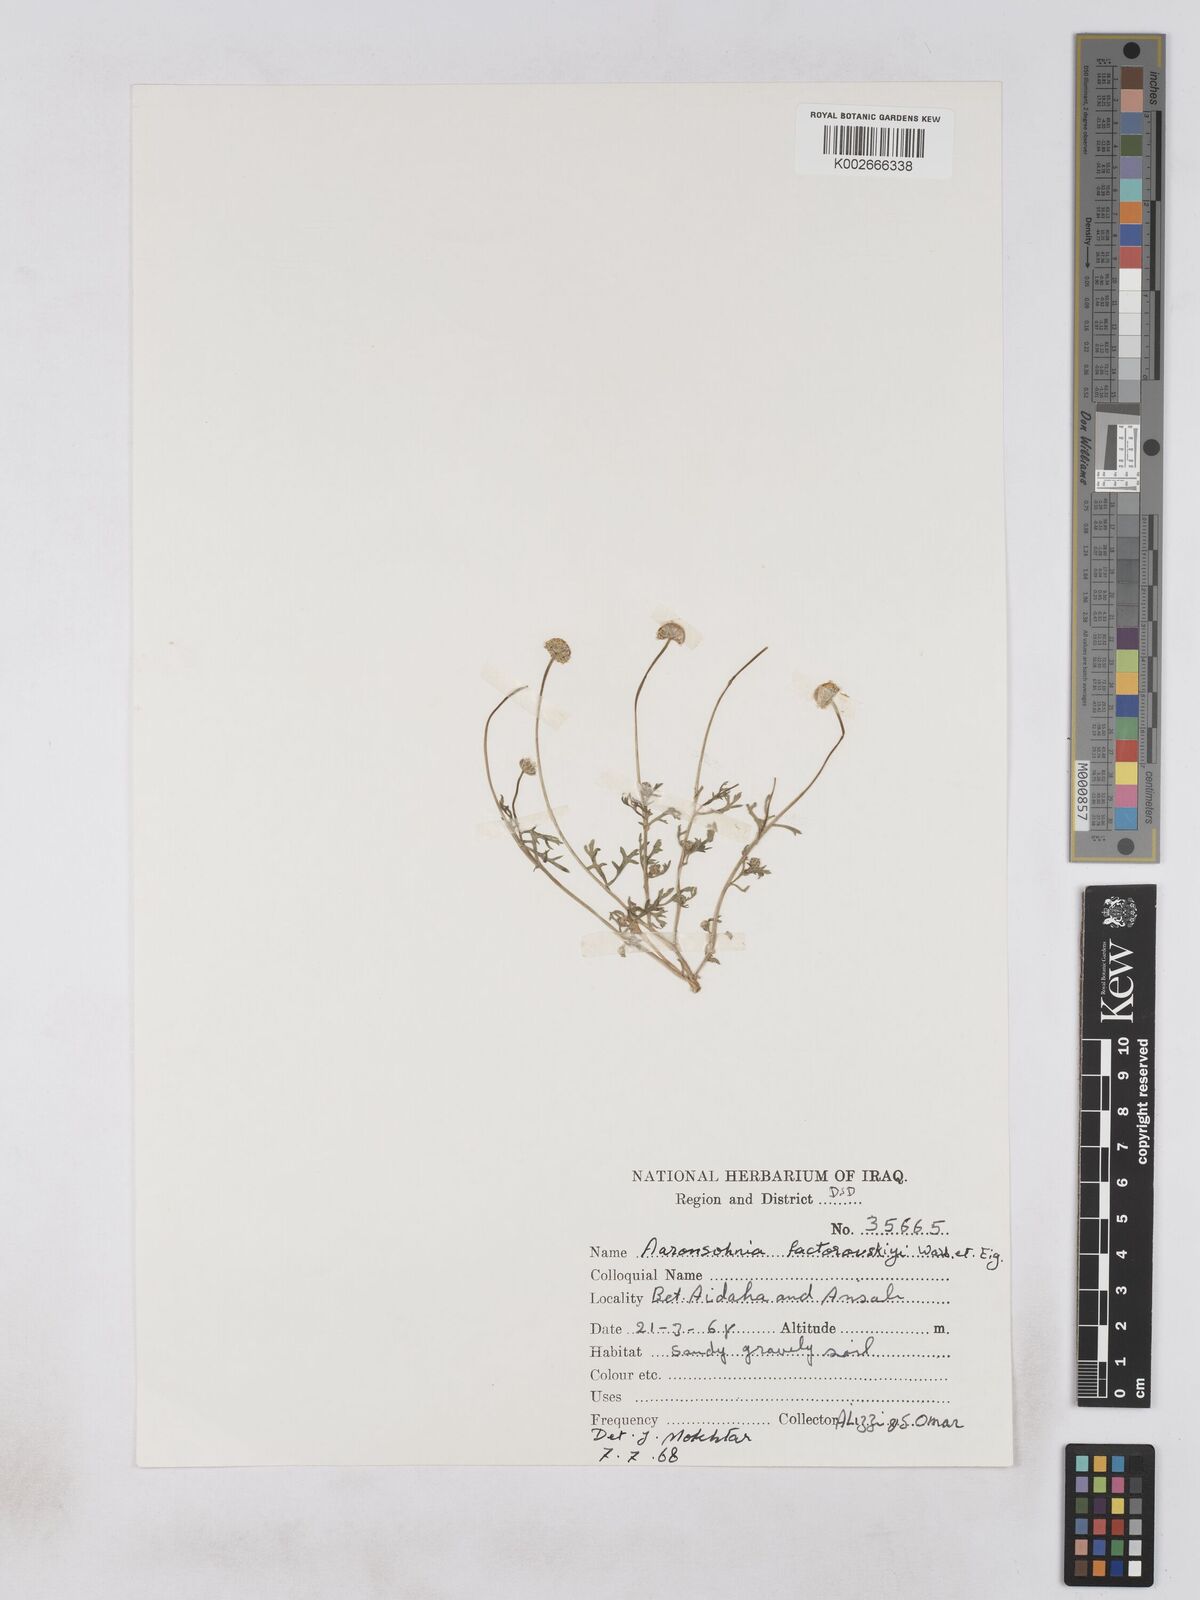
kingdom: Plantae
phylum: Tracheophyta
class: Magnoliopsida
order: Asterales
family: Asteraceae
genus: Otoglyphis
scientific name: Otoglyphis factorovskyi
